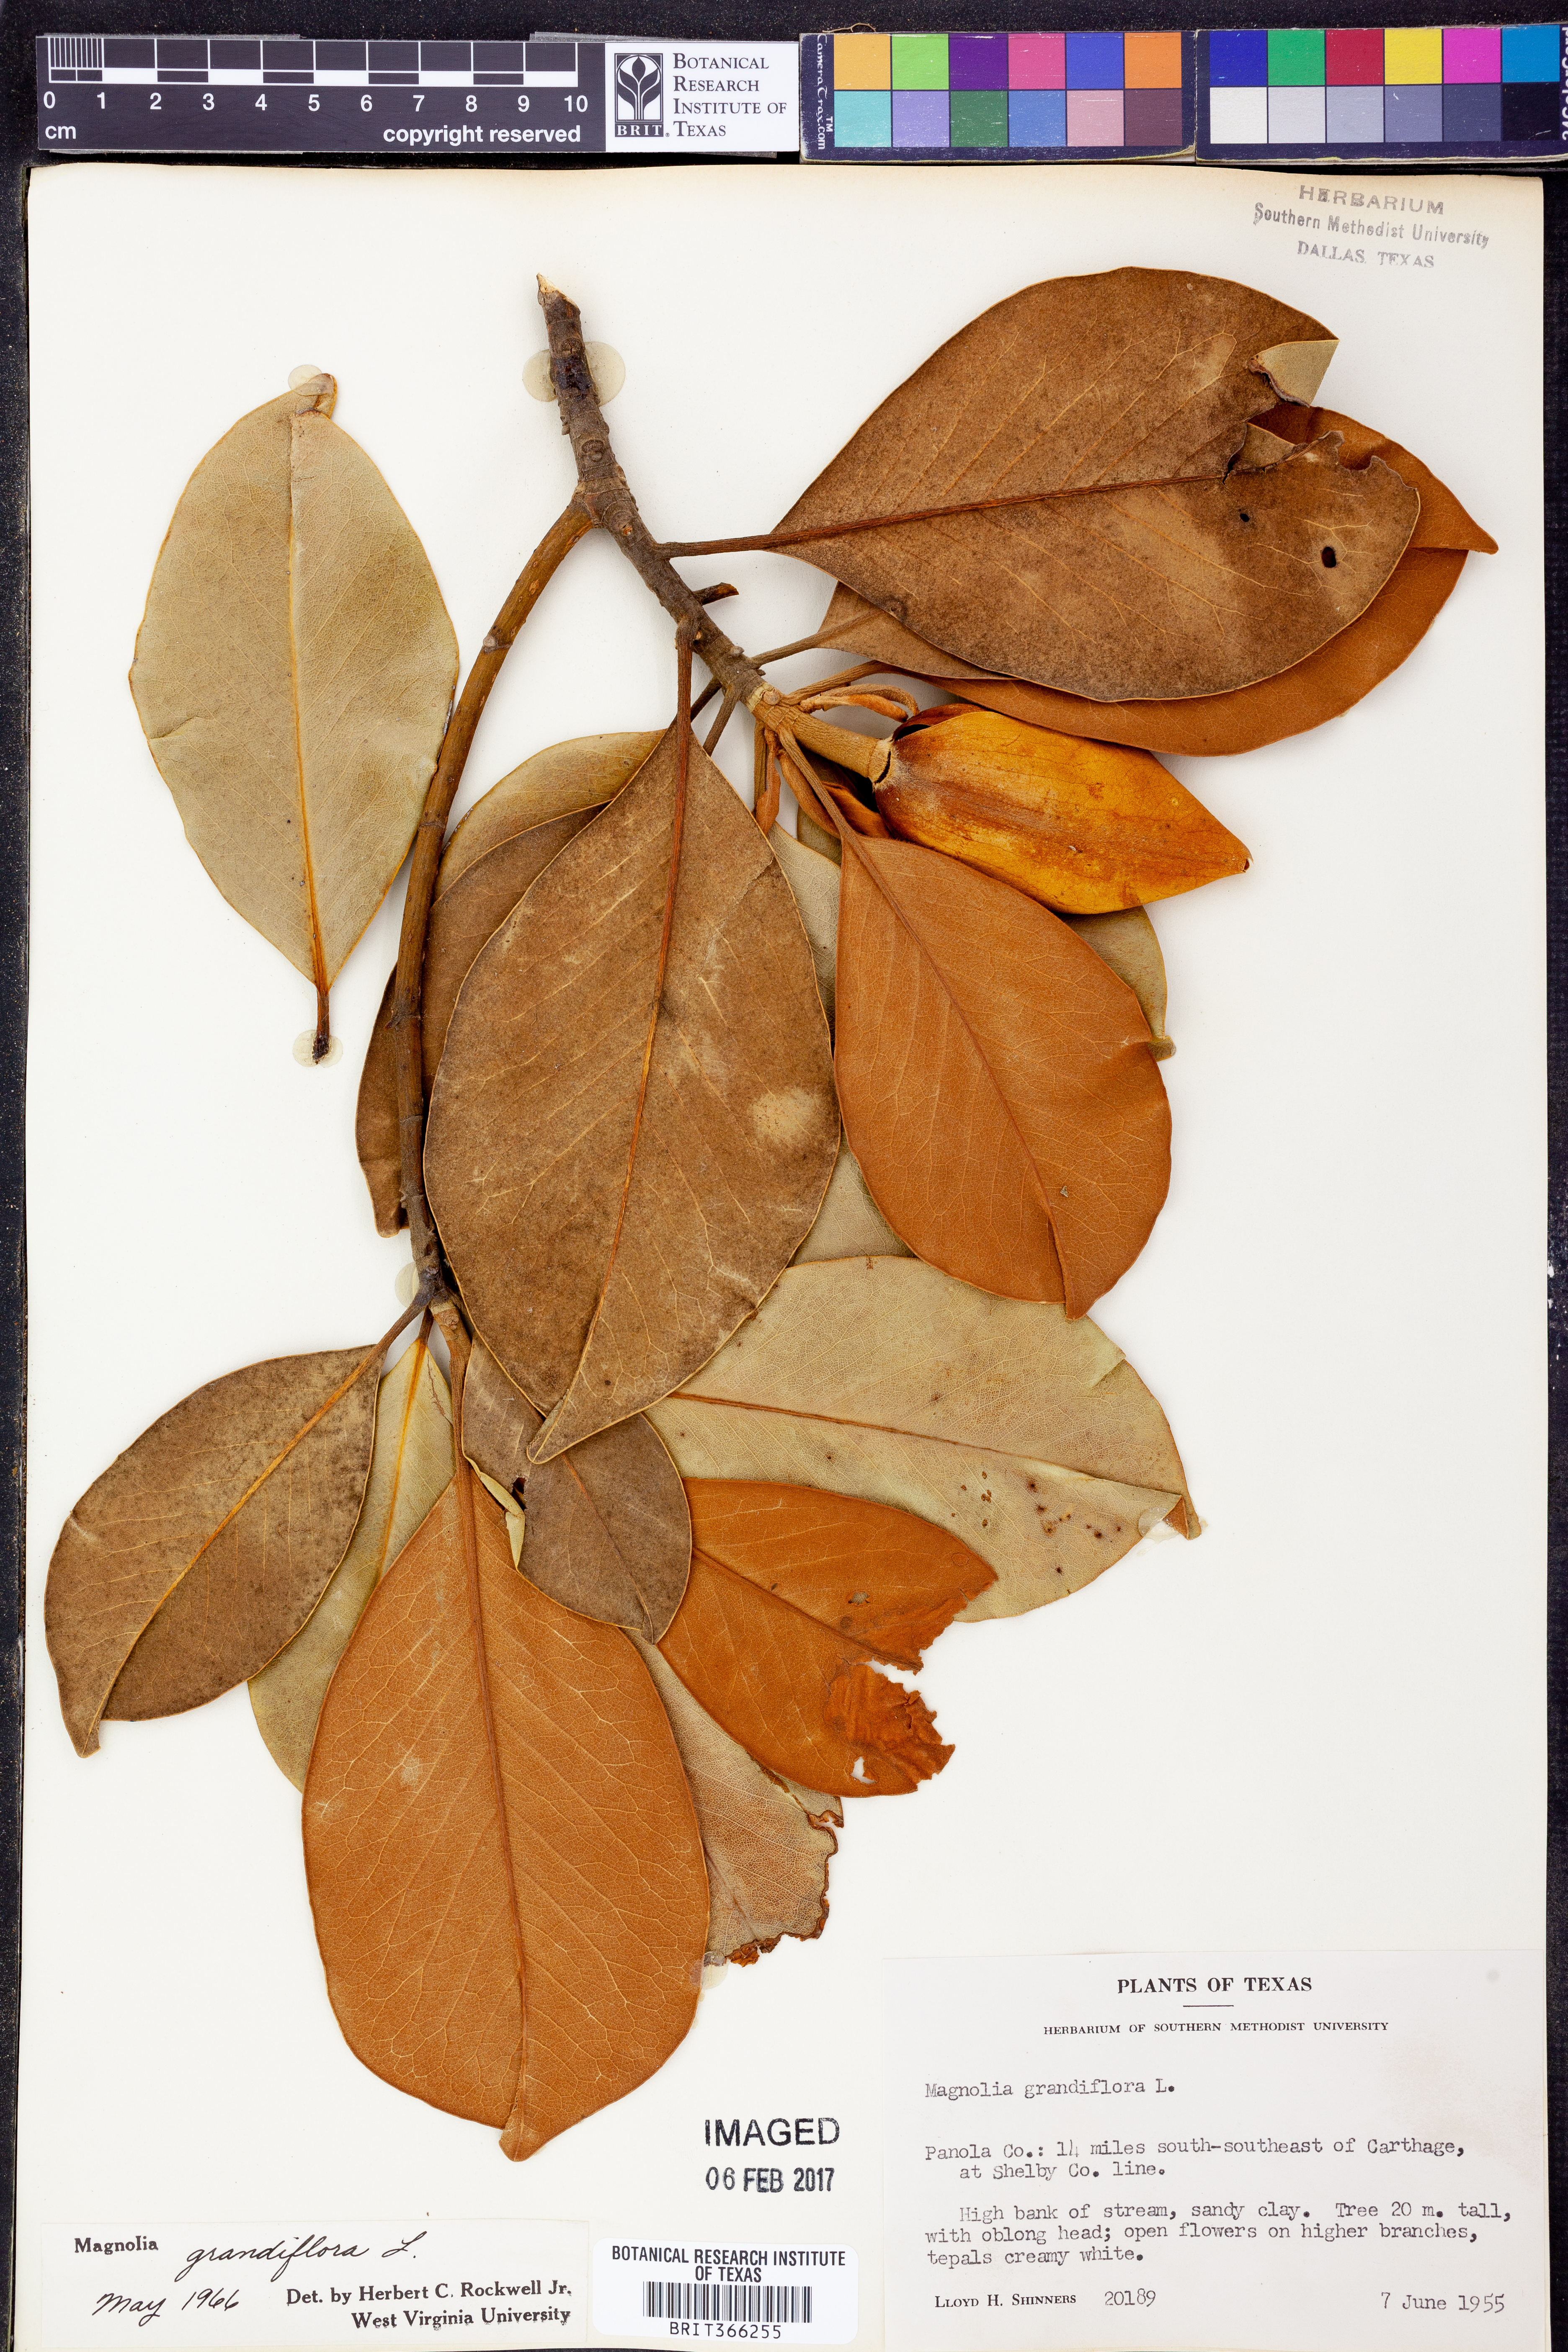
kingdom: Plantae
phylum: Tracheophyta
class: Magnoliopsida
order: Magnoliales
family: Magnoliaceae
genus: Magnolia
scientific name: Magnolia grandiflora
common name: Southern magnolia
